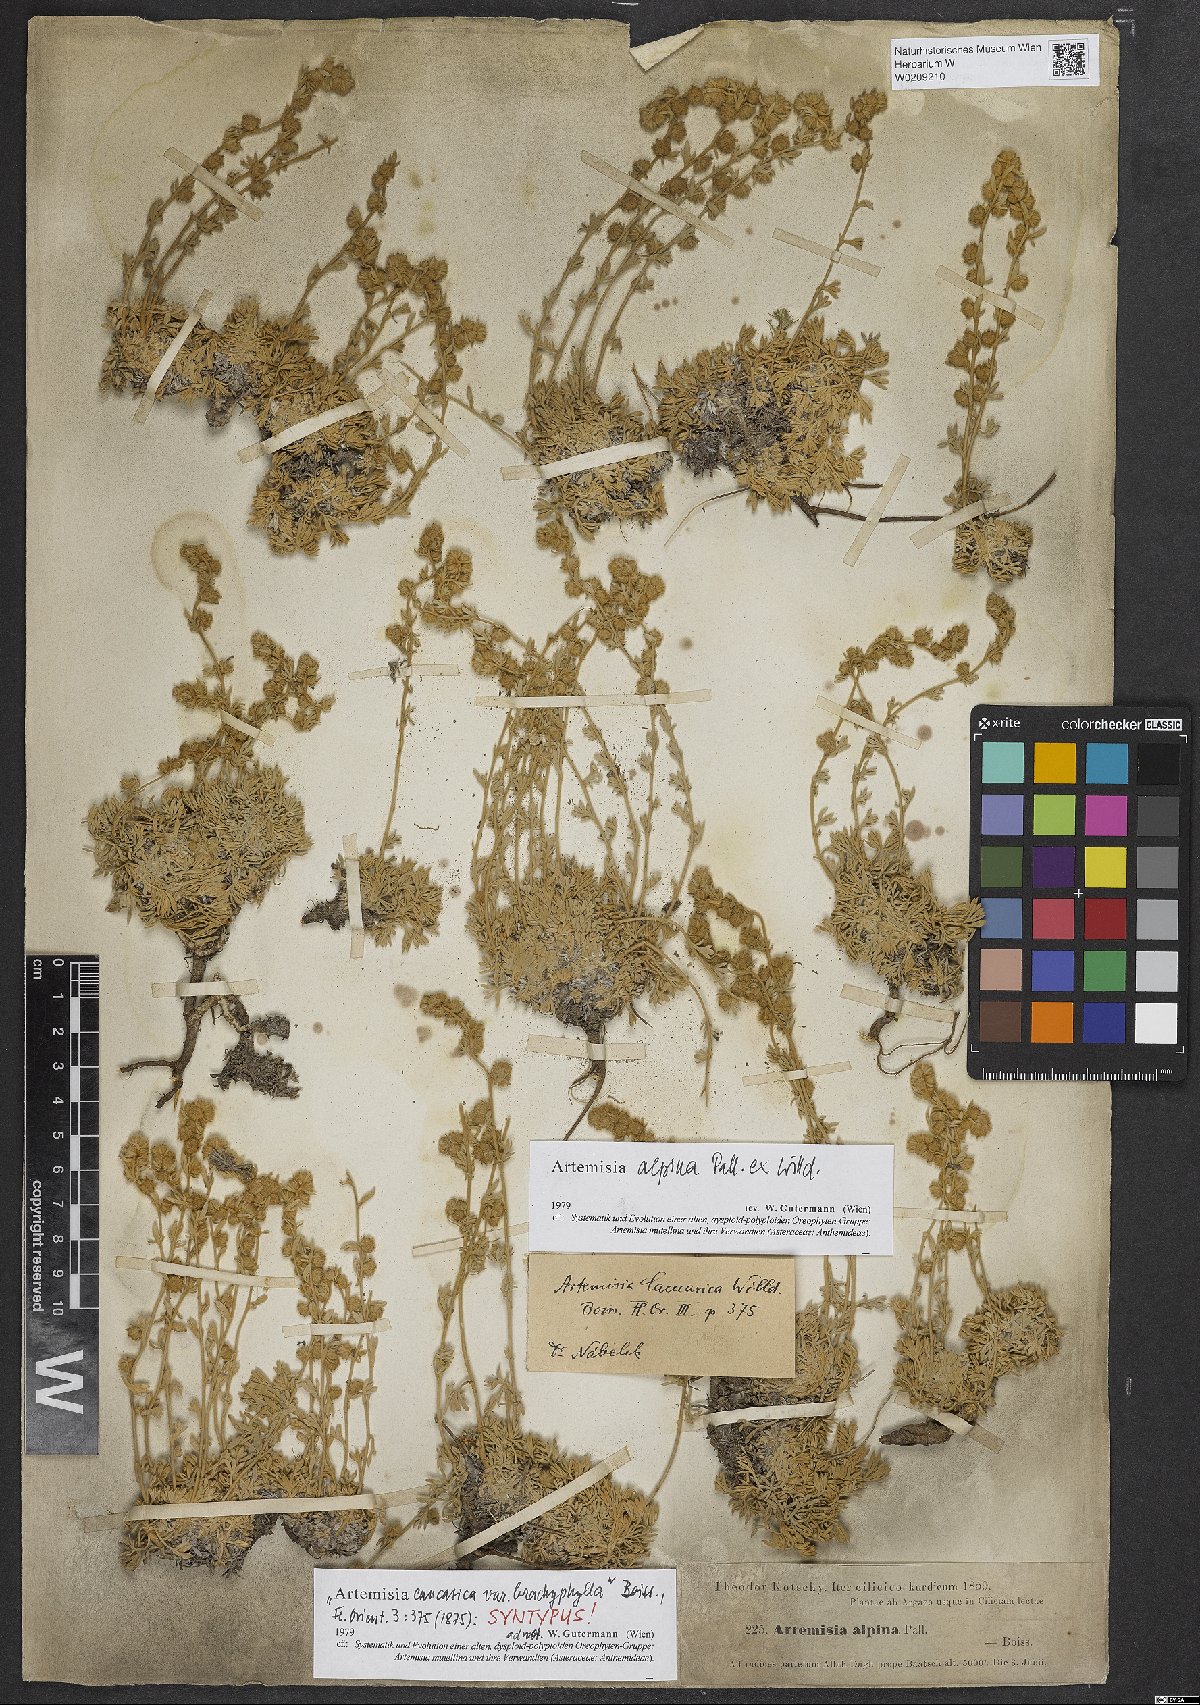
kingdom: Plantae
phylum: Tracheophyta
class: Magnoliopsida
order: Asterales
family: Asteraceae
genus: Artemisia
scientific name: Artemisia alpina
